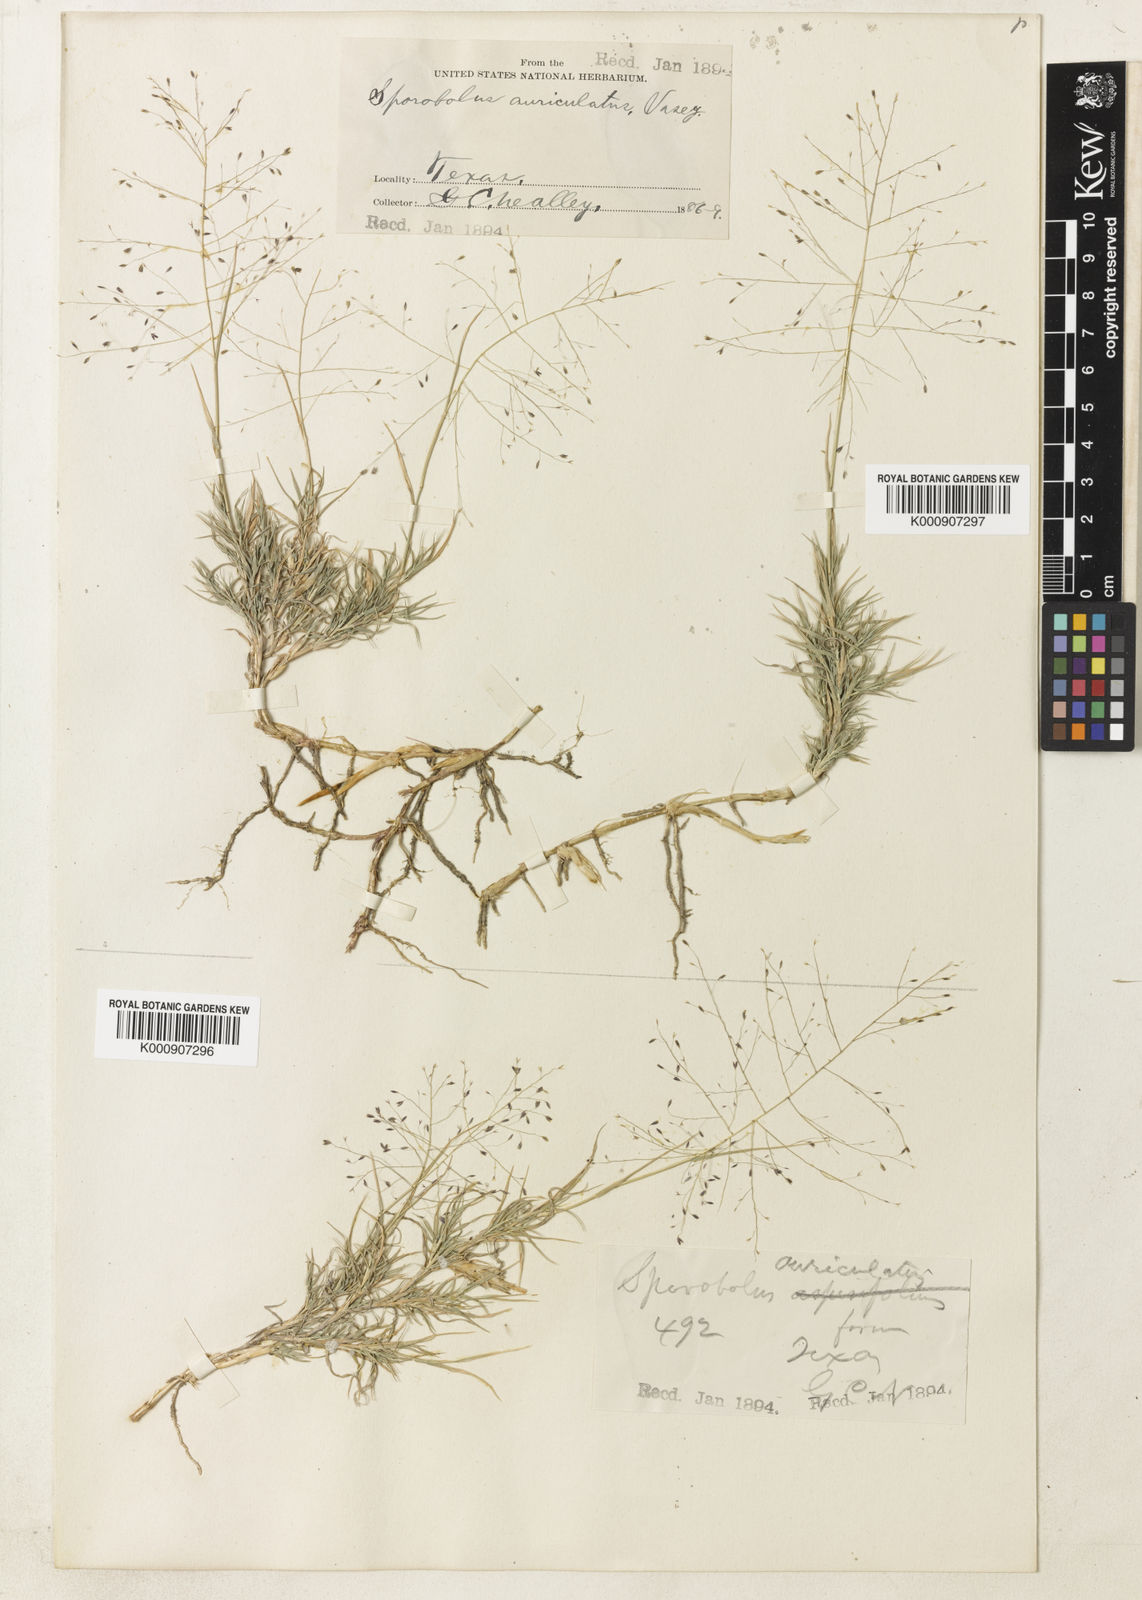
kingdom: Plantae
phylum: Tracheophyta
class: Liliopsida
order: Poales
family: Poaceae
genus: Muhlenbergia
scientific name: Muhlenbergia arenacea
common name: Ear muhly
